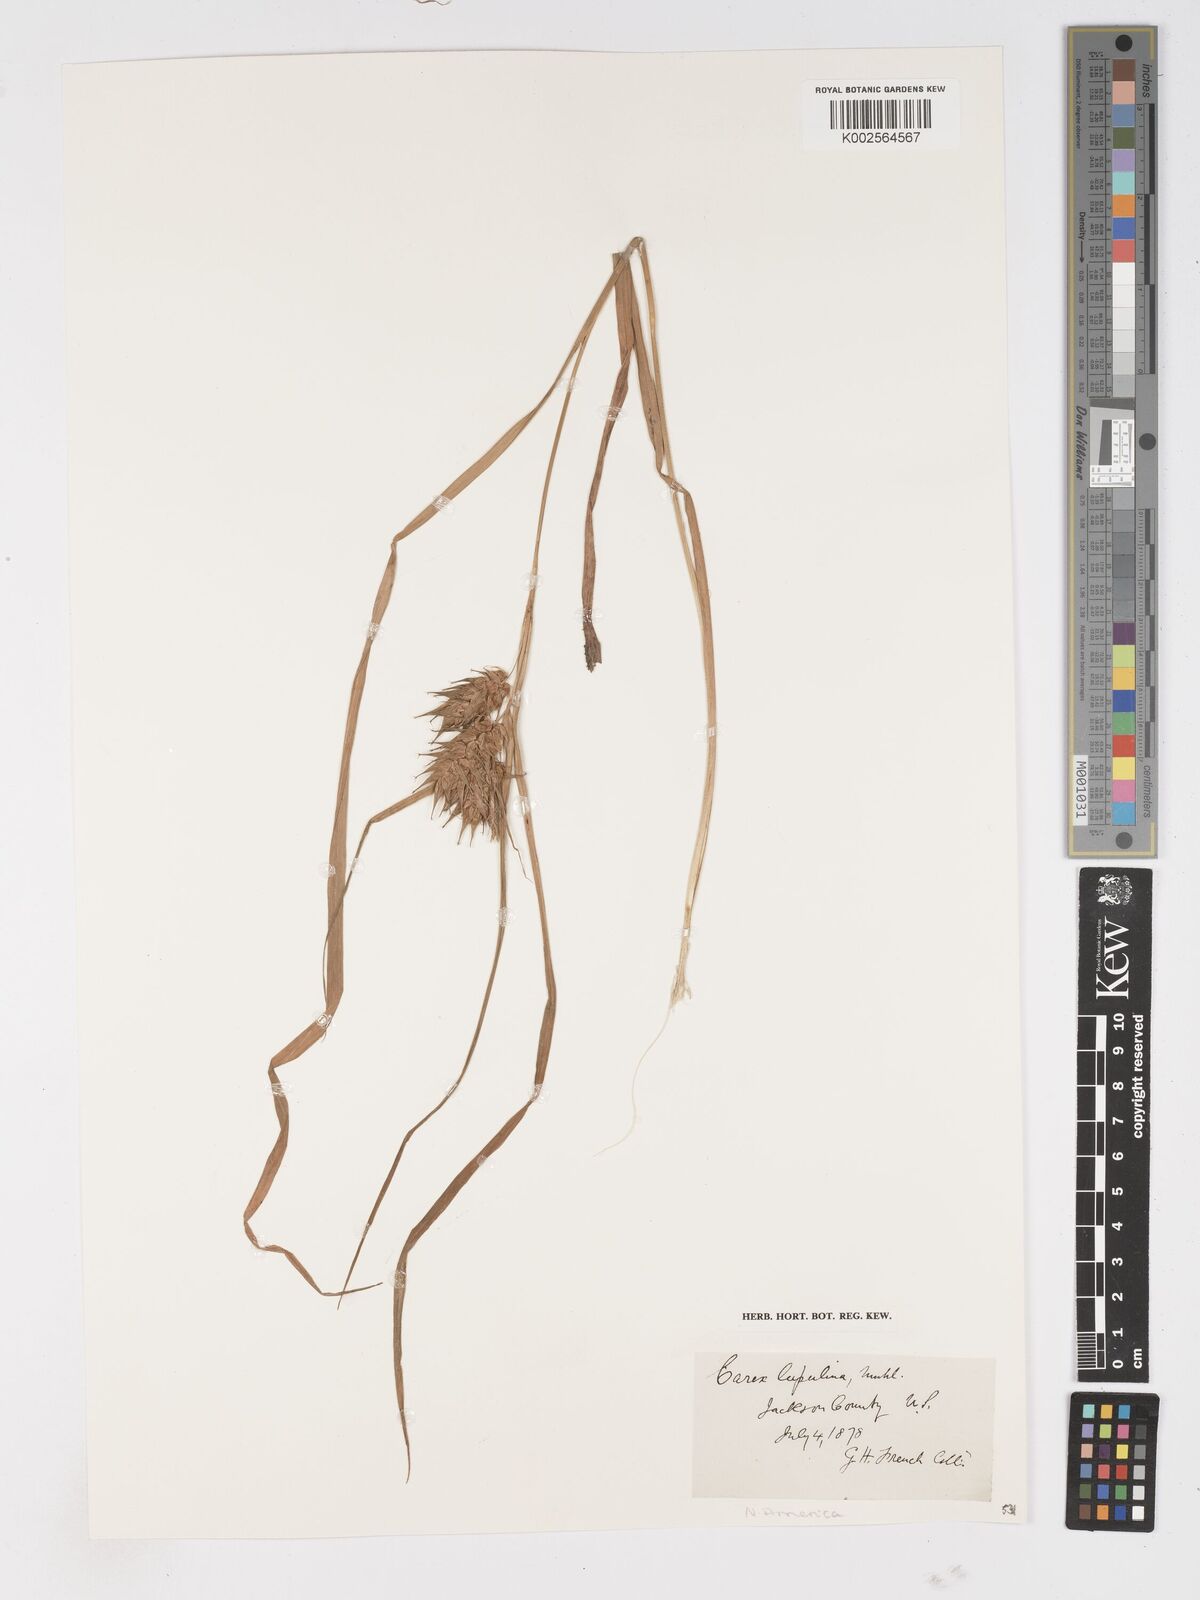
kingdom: Plantae
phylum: Tracheophyta
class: Liliopsida
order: Poales
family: Cyperaceae
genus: Carex
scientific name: Carex lupulina
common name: Hop sedge
